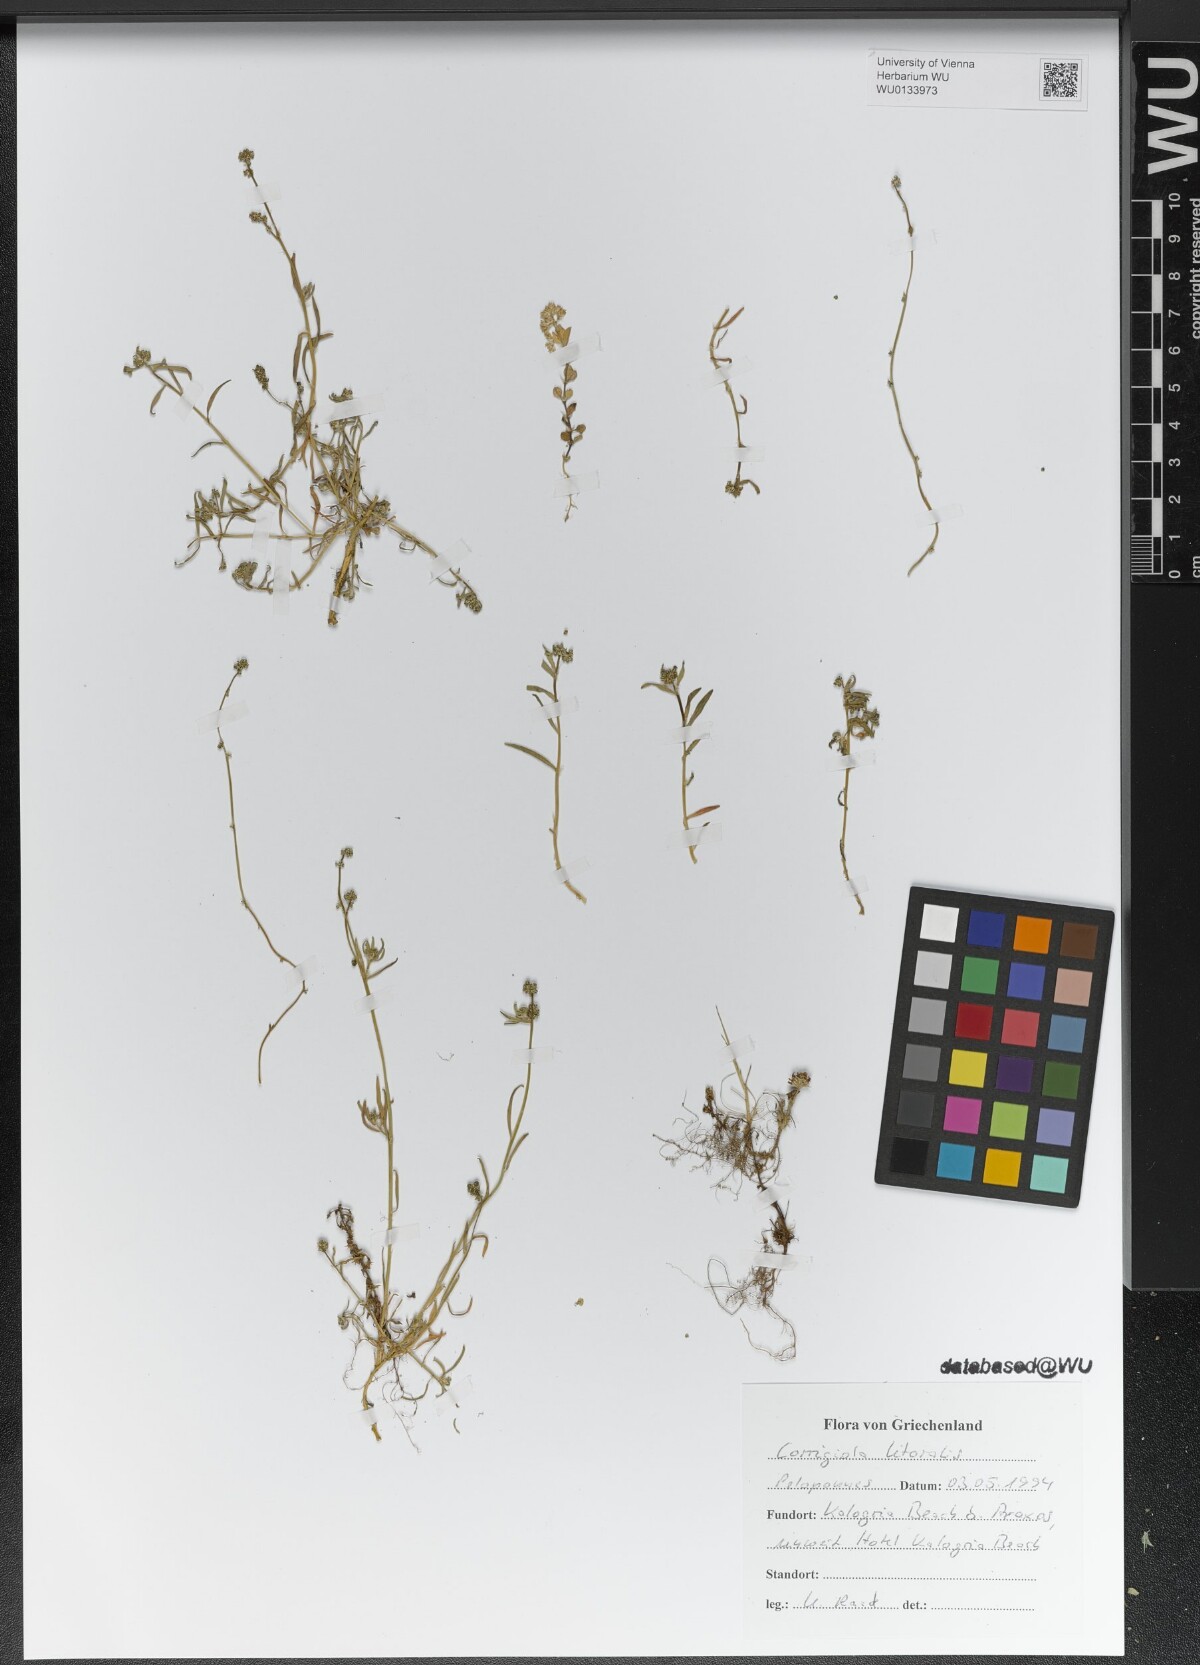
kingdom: Plantae
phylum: Tracheophyta
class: Magnoliopsida
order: Caryophyllales
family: Caryophyllaceae
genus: Corrigiola
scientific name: Corrigiola litoralis
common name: Strapwort
